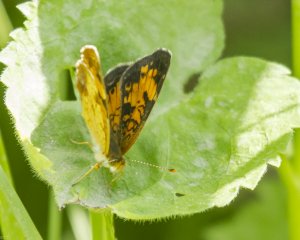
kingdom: Animalia
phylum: Arthropoda
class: Insecta
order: Lepidoptera
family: Nymphalidae
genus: Phyciodes
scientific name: Phyciodes tharos
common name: Northern Crescent
